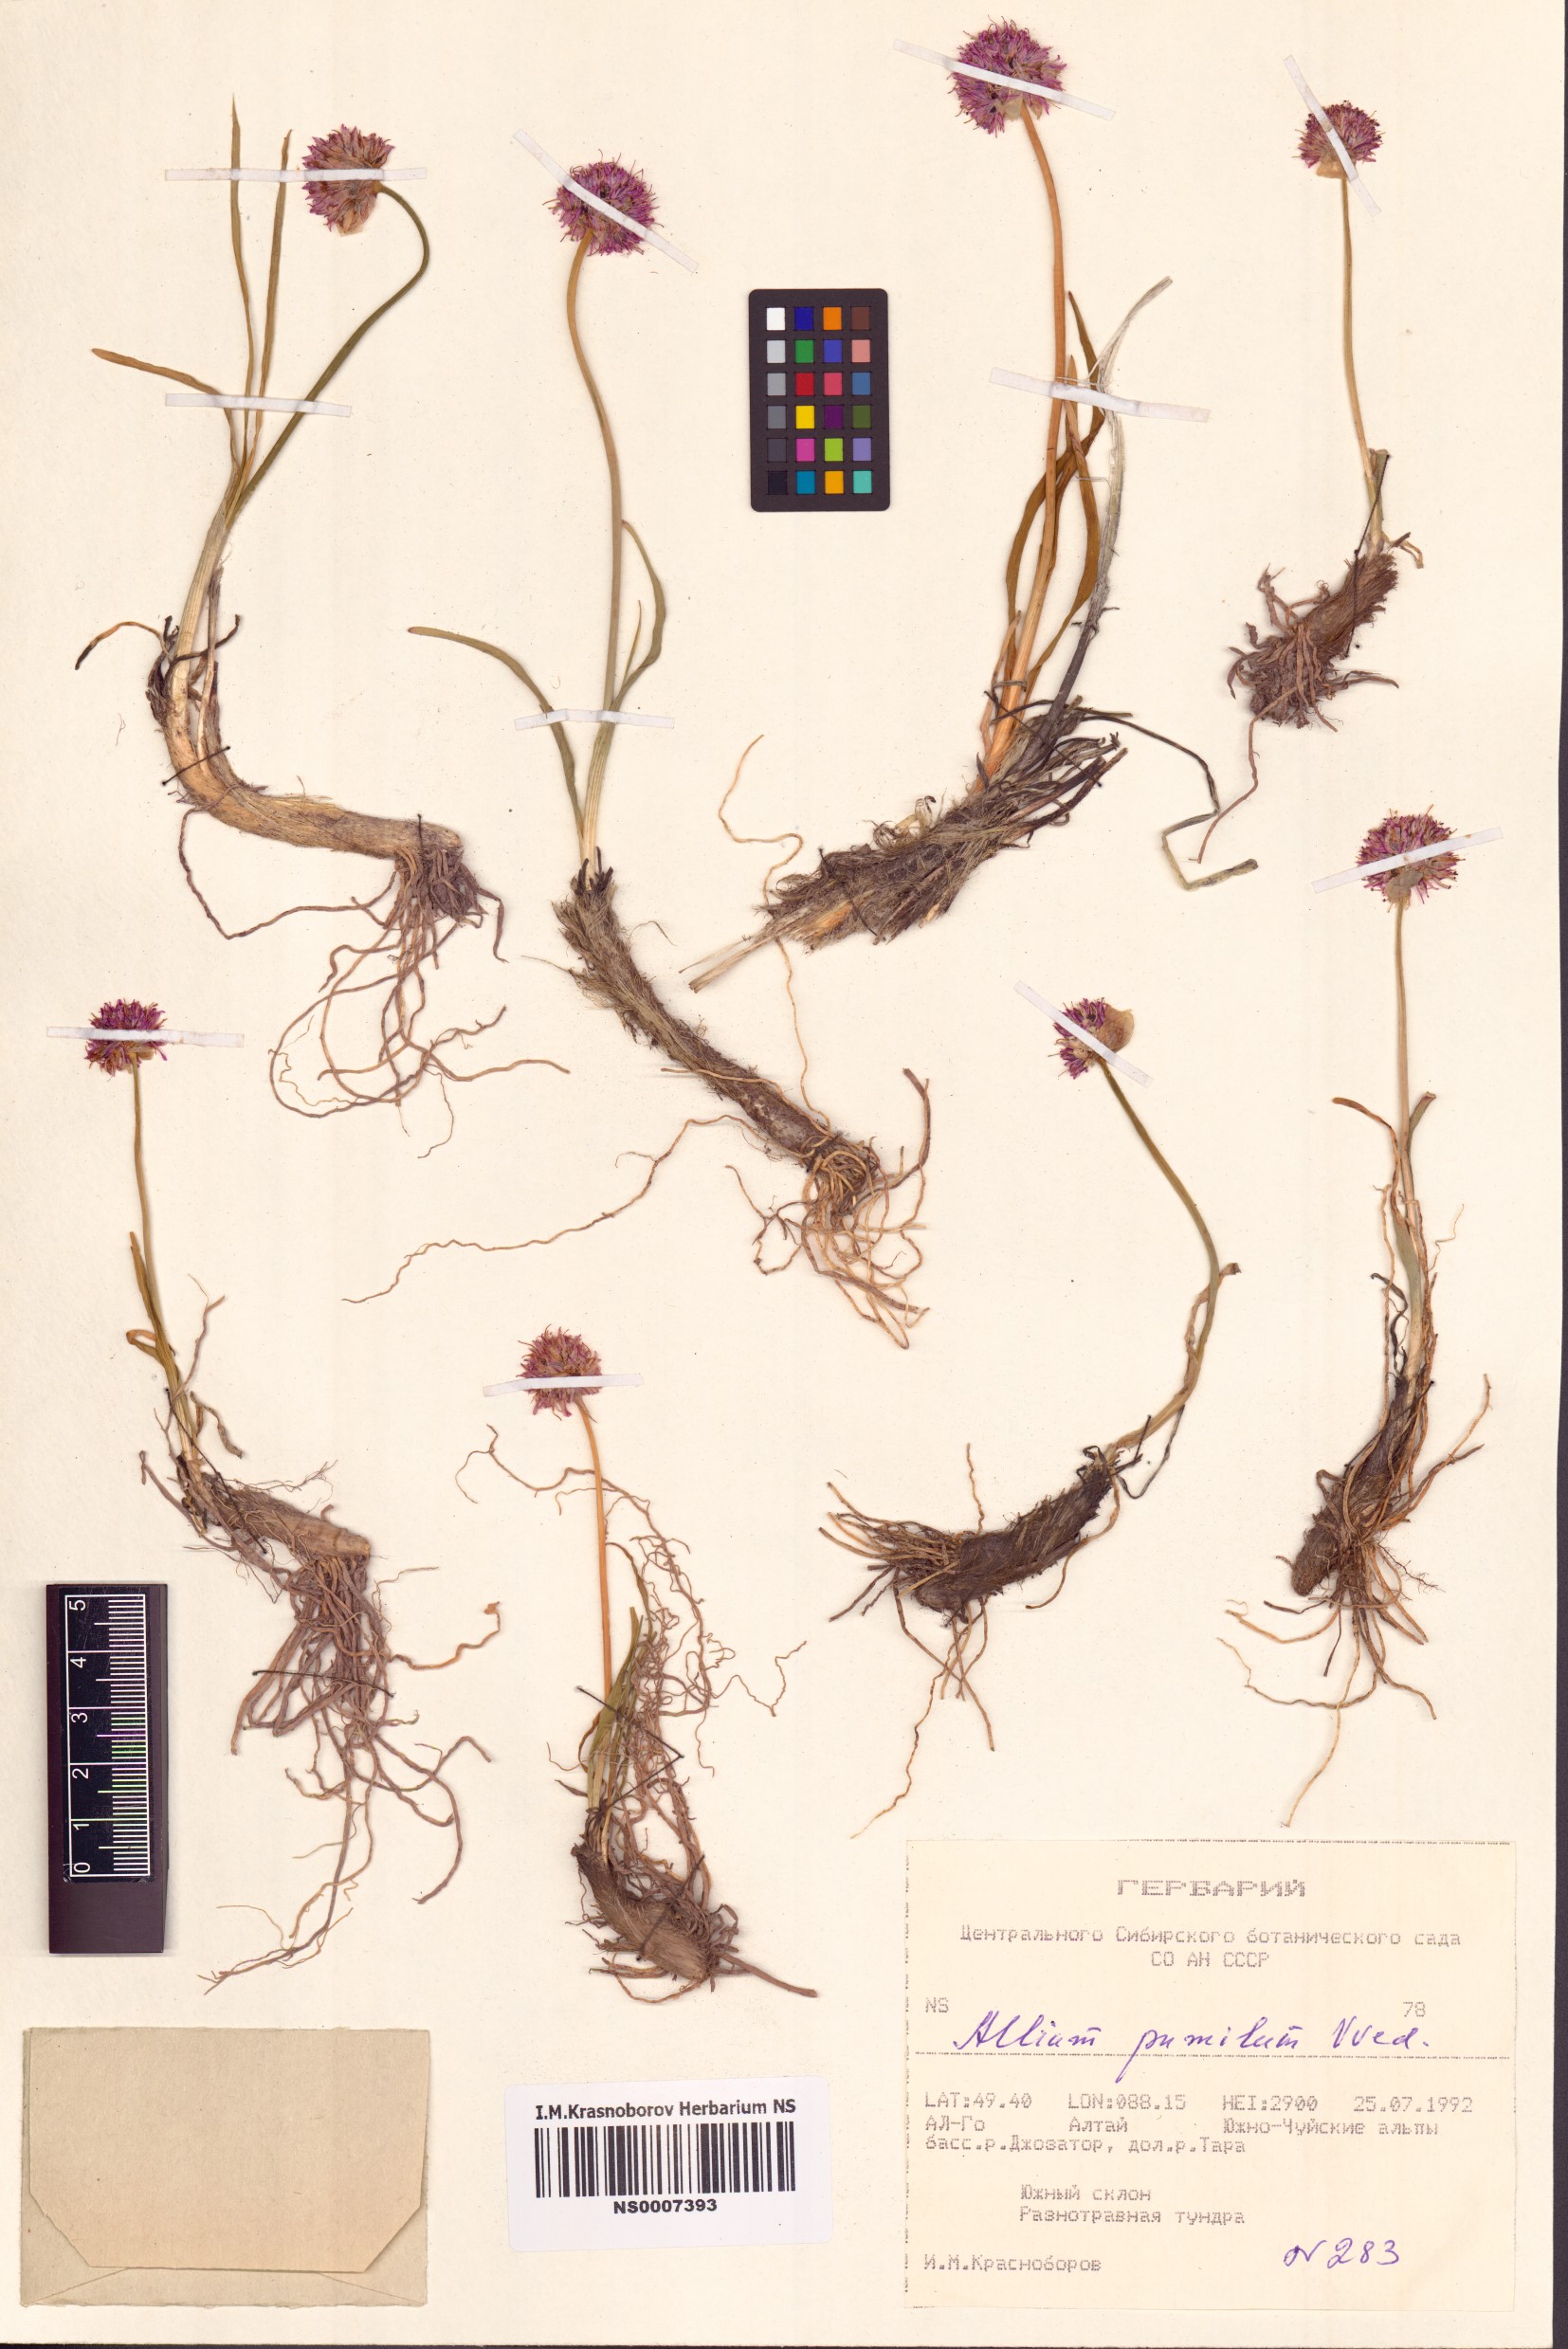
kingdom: Plantae
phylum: Tracheophyta
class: Liliopsida
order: Asparagales
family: Amaryllidaceae
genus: Allium
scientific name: Allium pumilum
